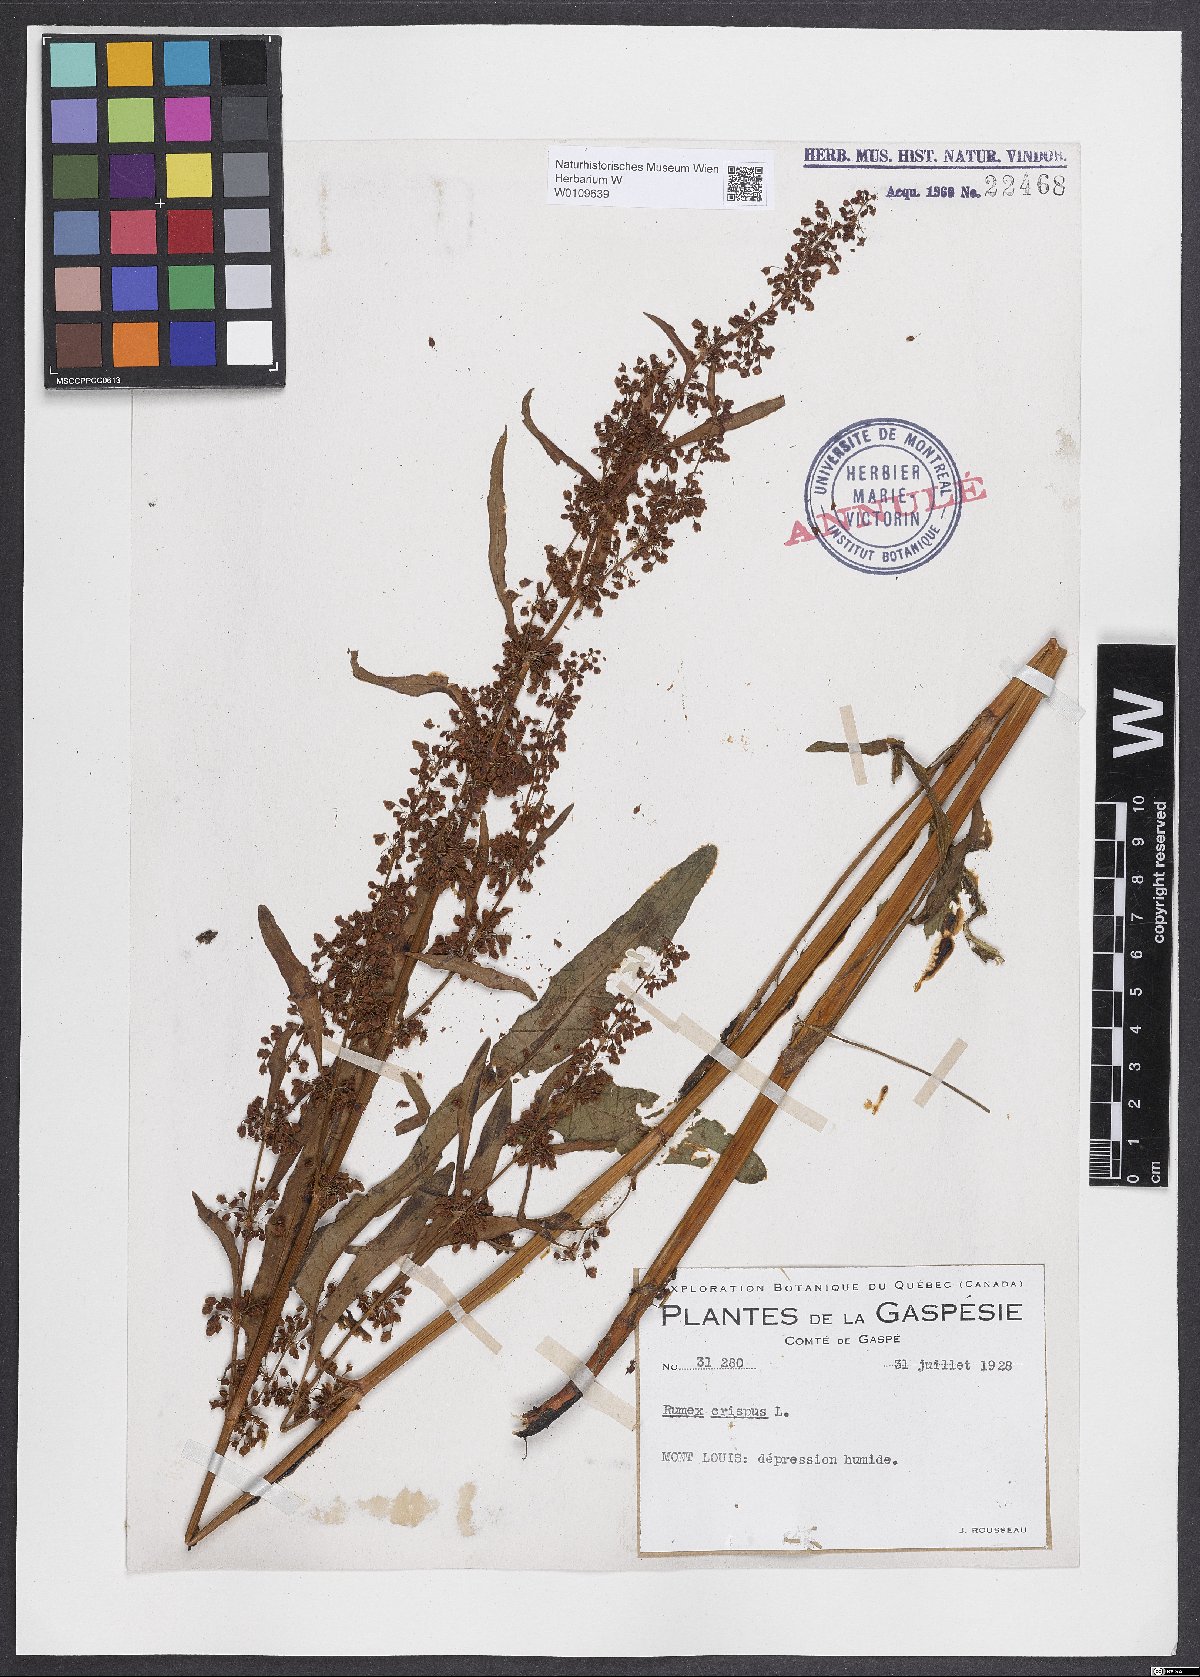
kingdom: Plantae
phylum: Tracheophyta
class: Magnoliopsida
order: Caryophyllales
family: Polygonaceae
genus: Rumex
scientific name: Rumex crispus
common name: Curled dock
